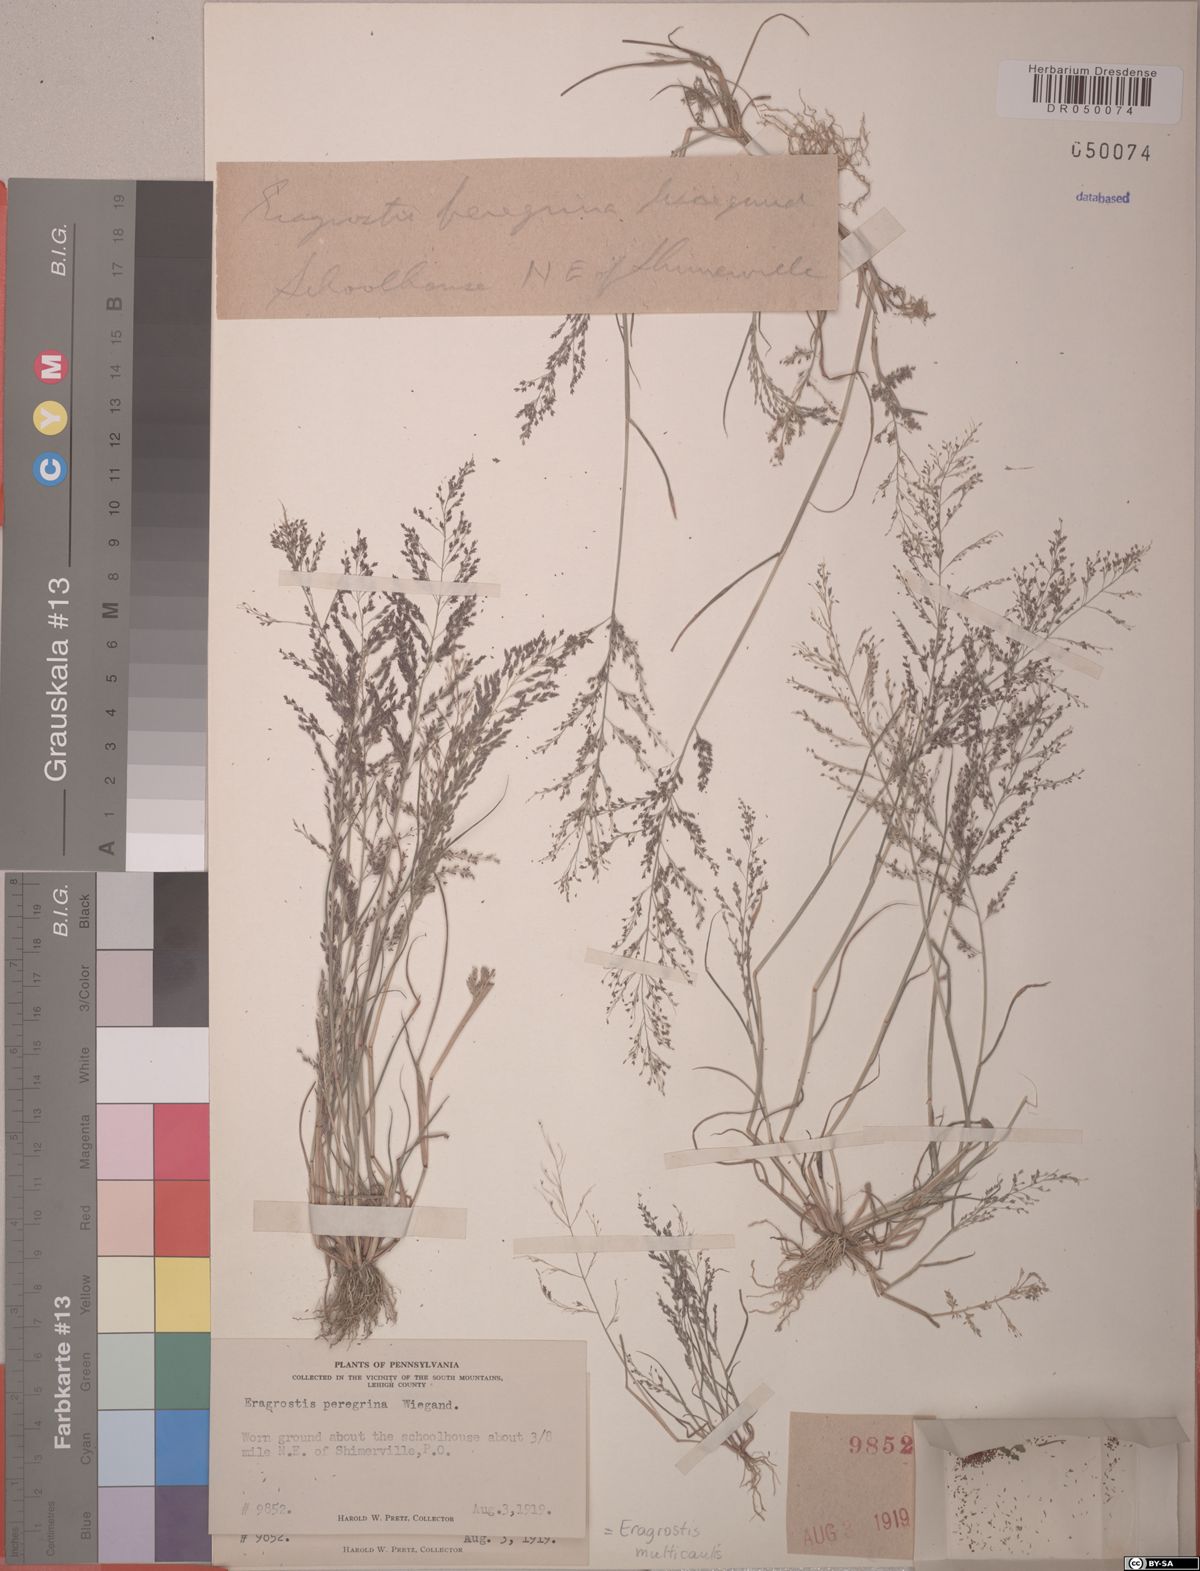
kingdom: Plantae
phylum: Tracheophyta
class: Liliopsida
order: Poales
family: Poaceae
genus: Eragrostis
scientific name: Eragrostis multicaulis
